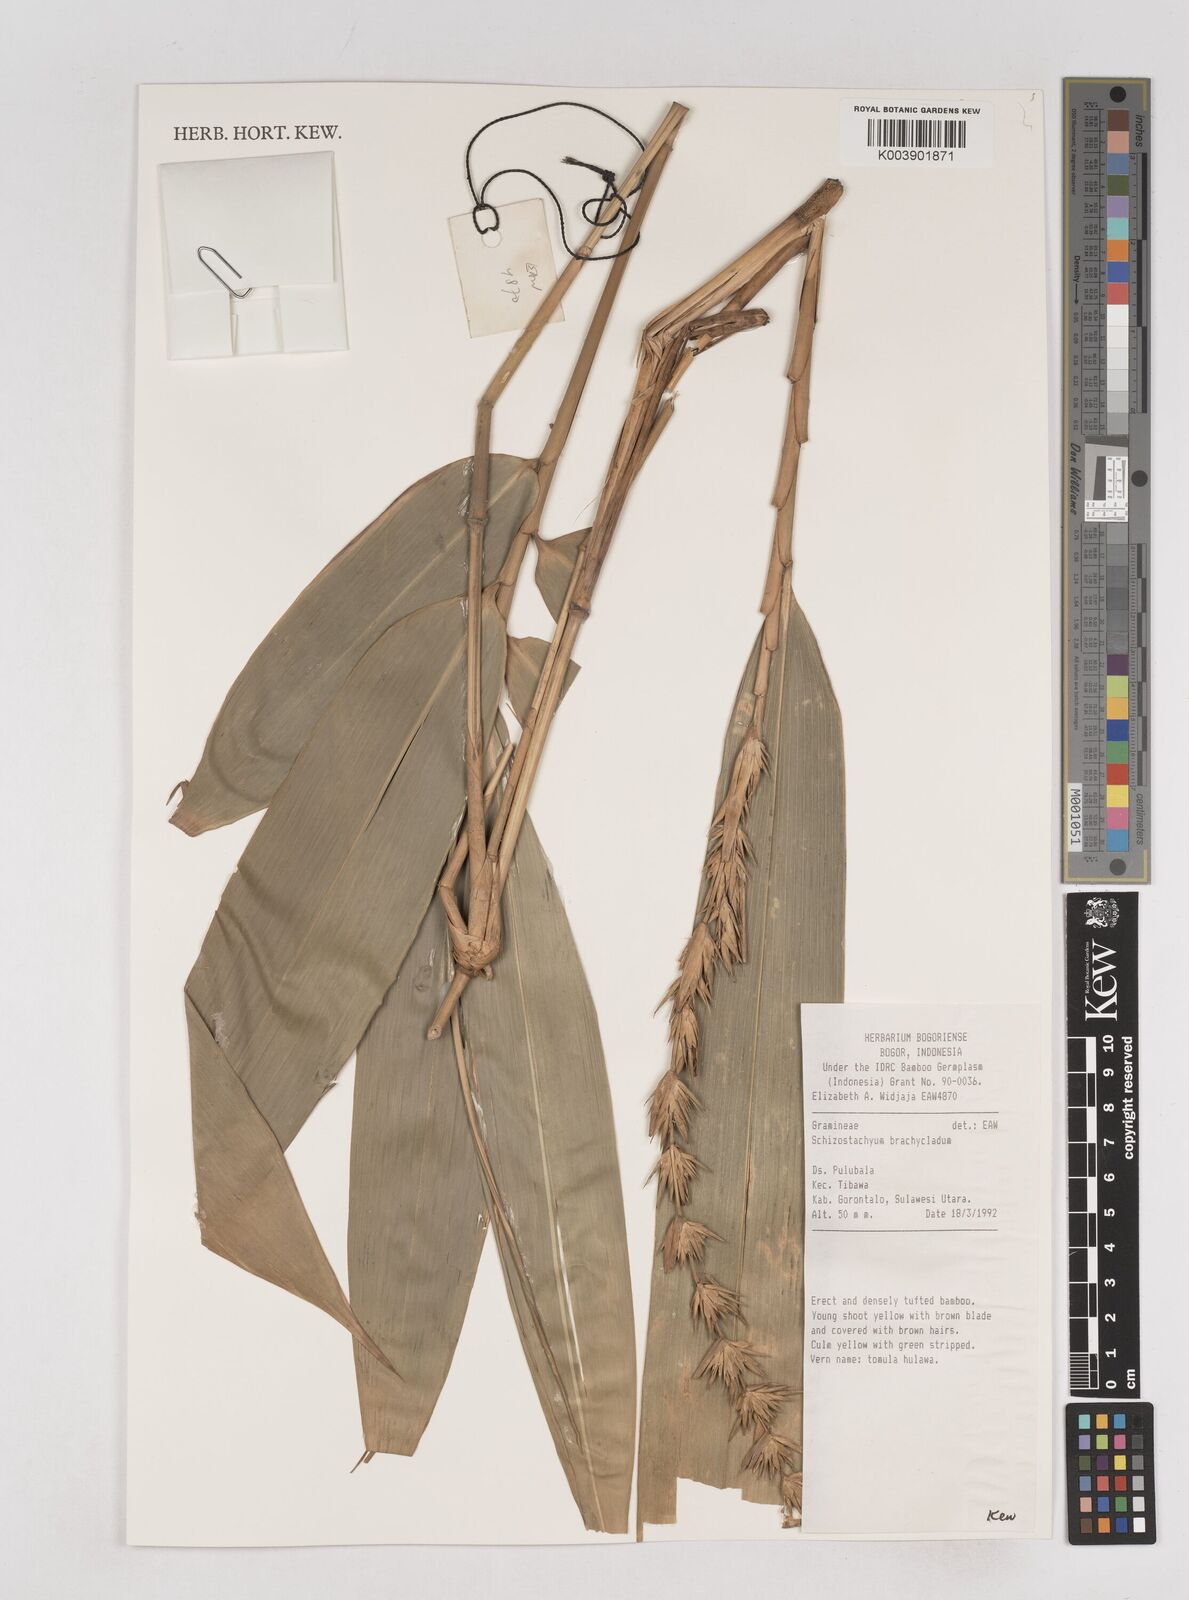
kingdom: Plantae
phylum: Tracheophyta
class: Liliopsida
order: Poales
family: Poaceae
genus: Schizostachyum
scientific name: Schizostachyum brachycladum
